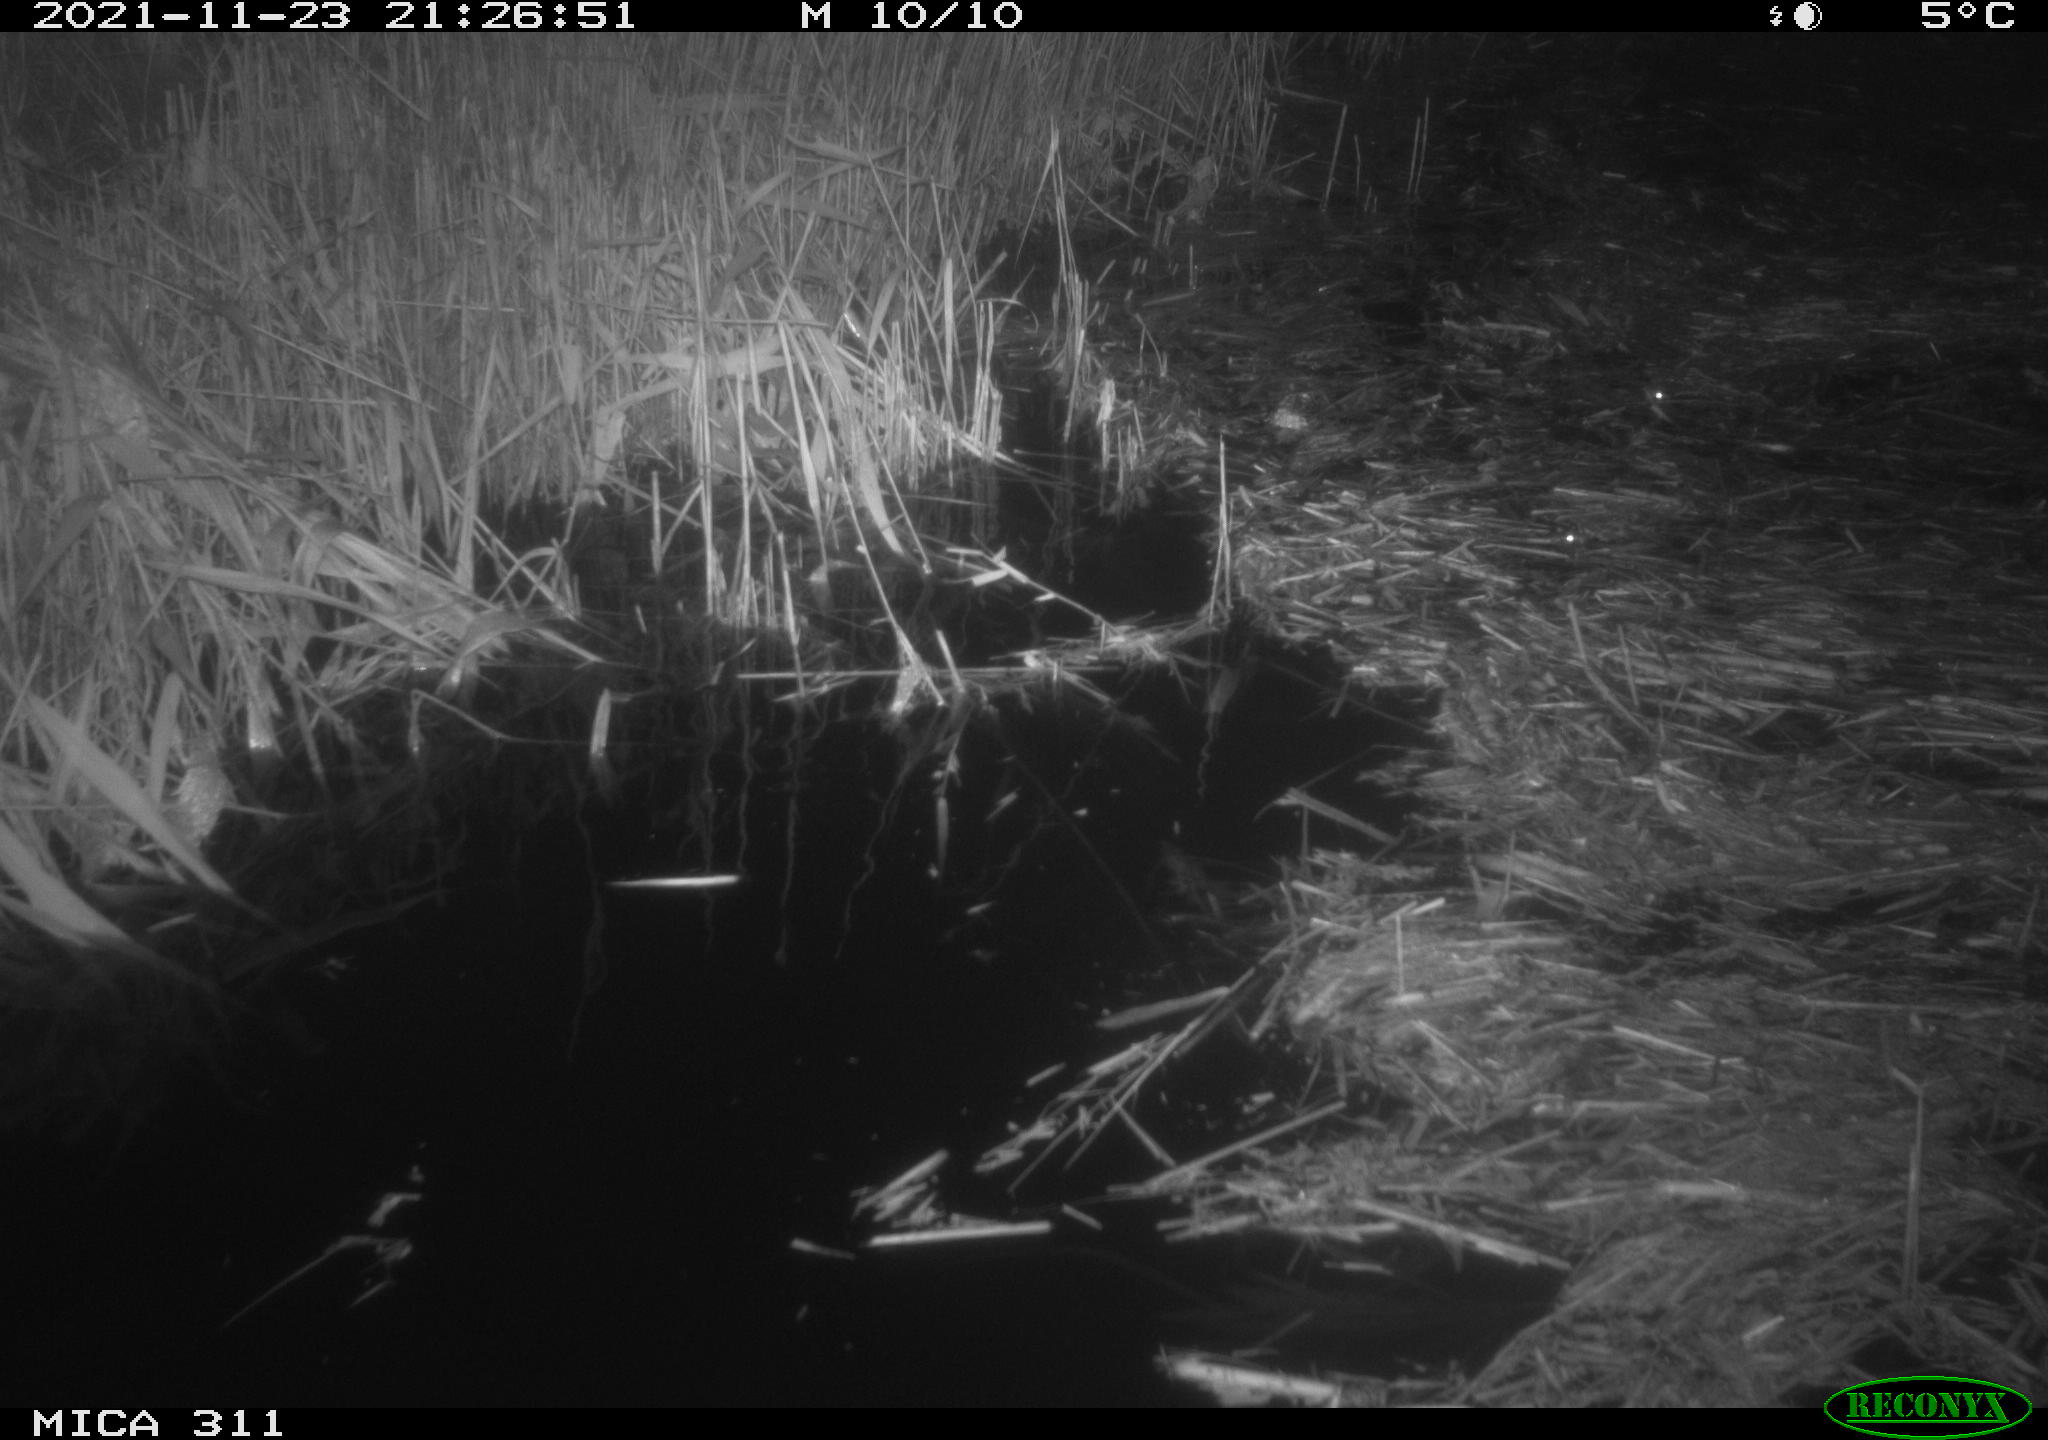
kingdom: Animalia
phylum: Chordata
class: Mammalia
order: Rodentia
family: Muridae
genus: Rattus
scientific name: Rattus norvegicus
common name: Brown rat
